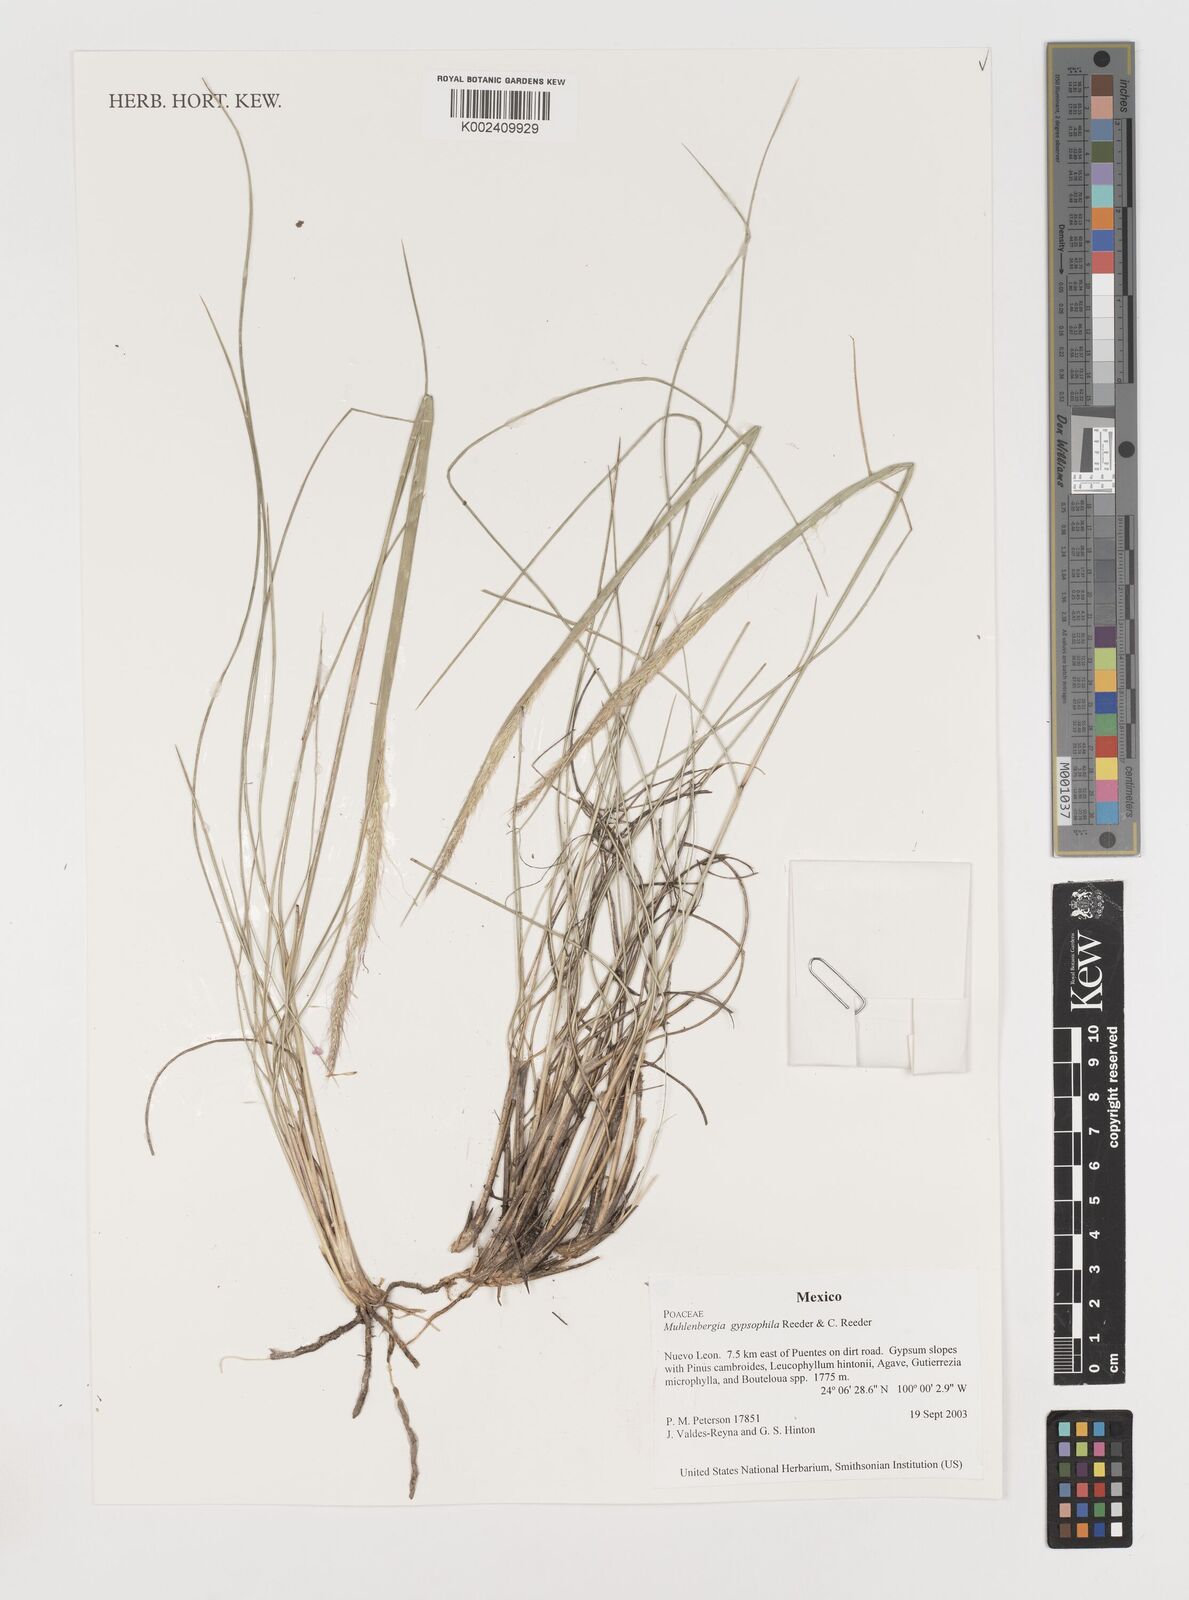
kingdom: Plantae
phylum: Tracheophyta
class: Liliopsida
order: Poales
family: Poaceae
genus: Muhlenbergia
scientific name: Muhlenbergia gypsophila
